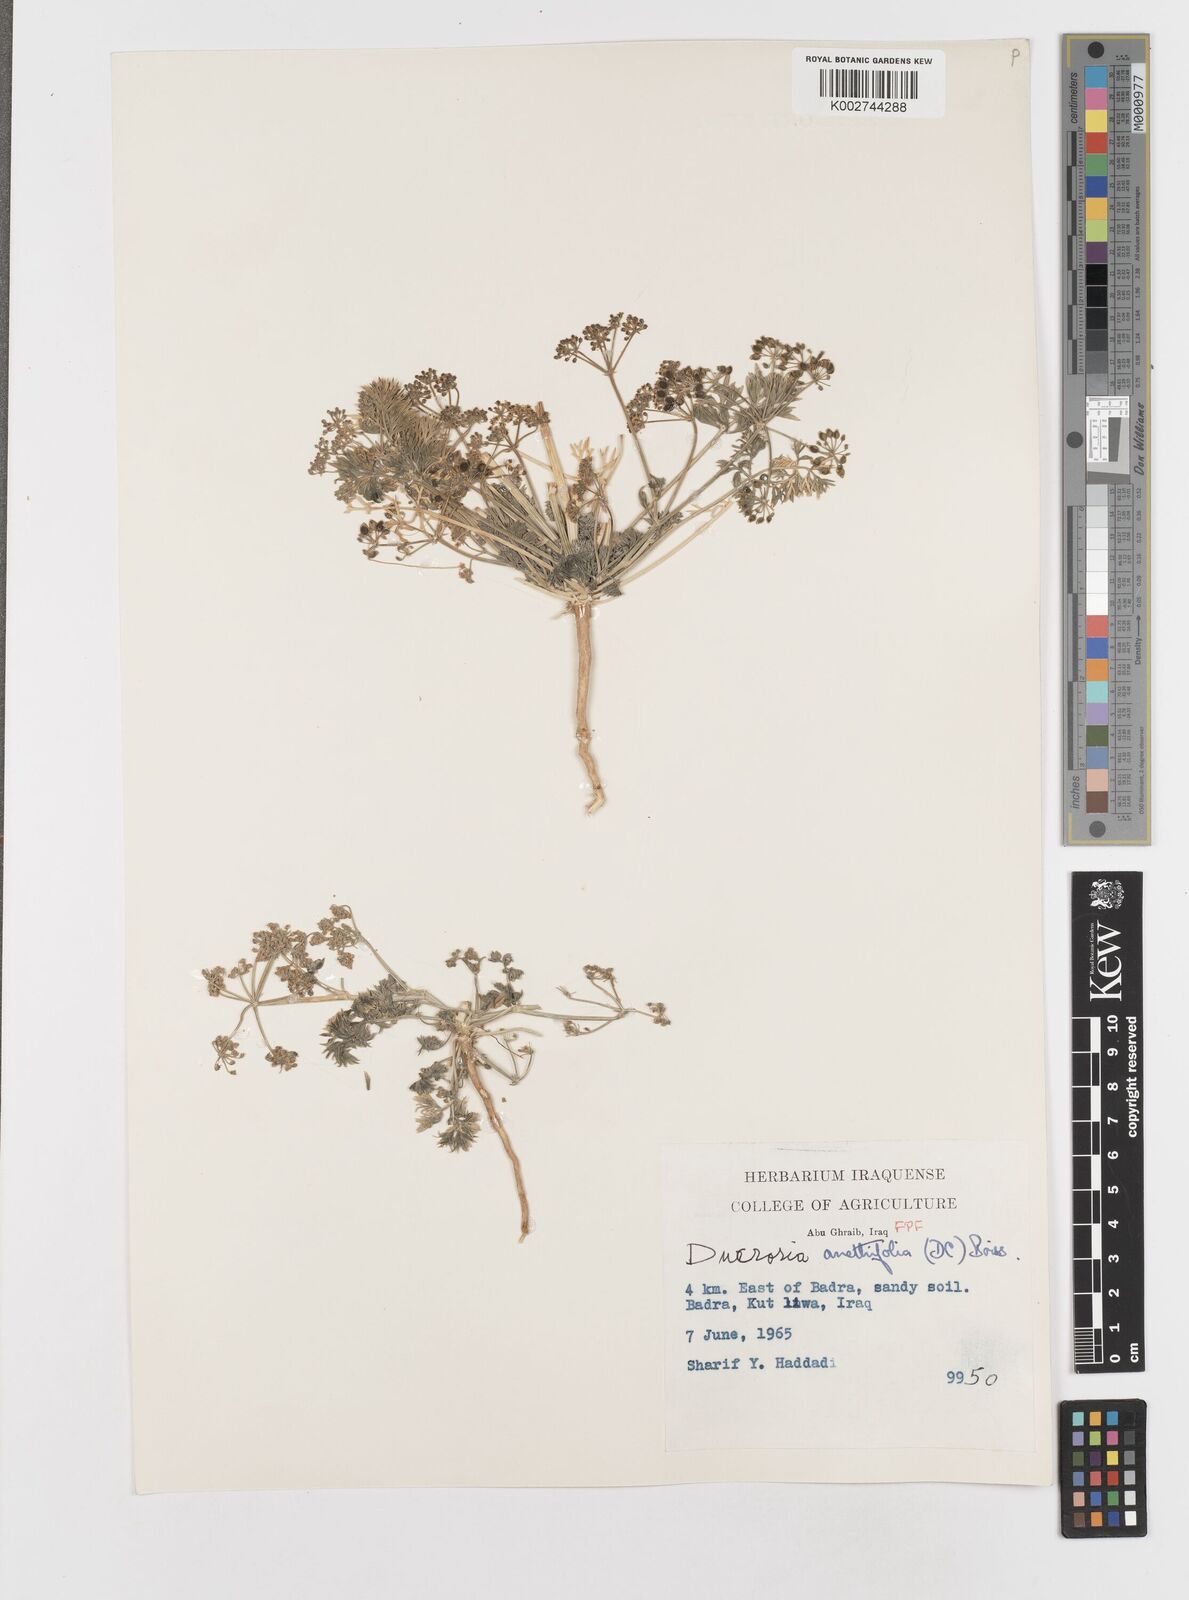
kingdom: Plantae
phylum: Tracheophyta
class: Magnoliopsida
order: Apiales
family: Apiaceae
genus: Ducrosia
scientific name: Ducrosia anethifolia
